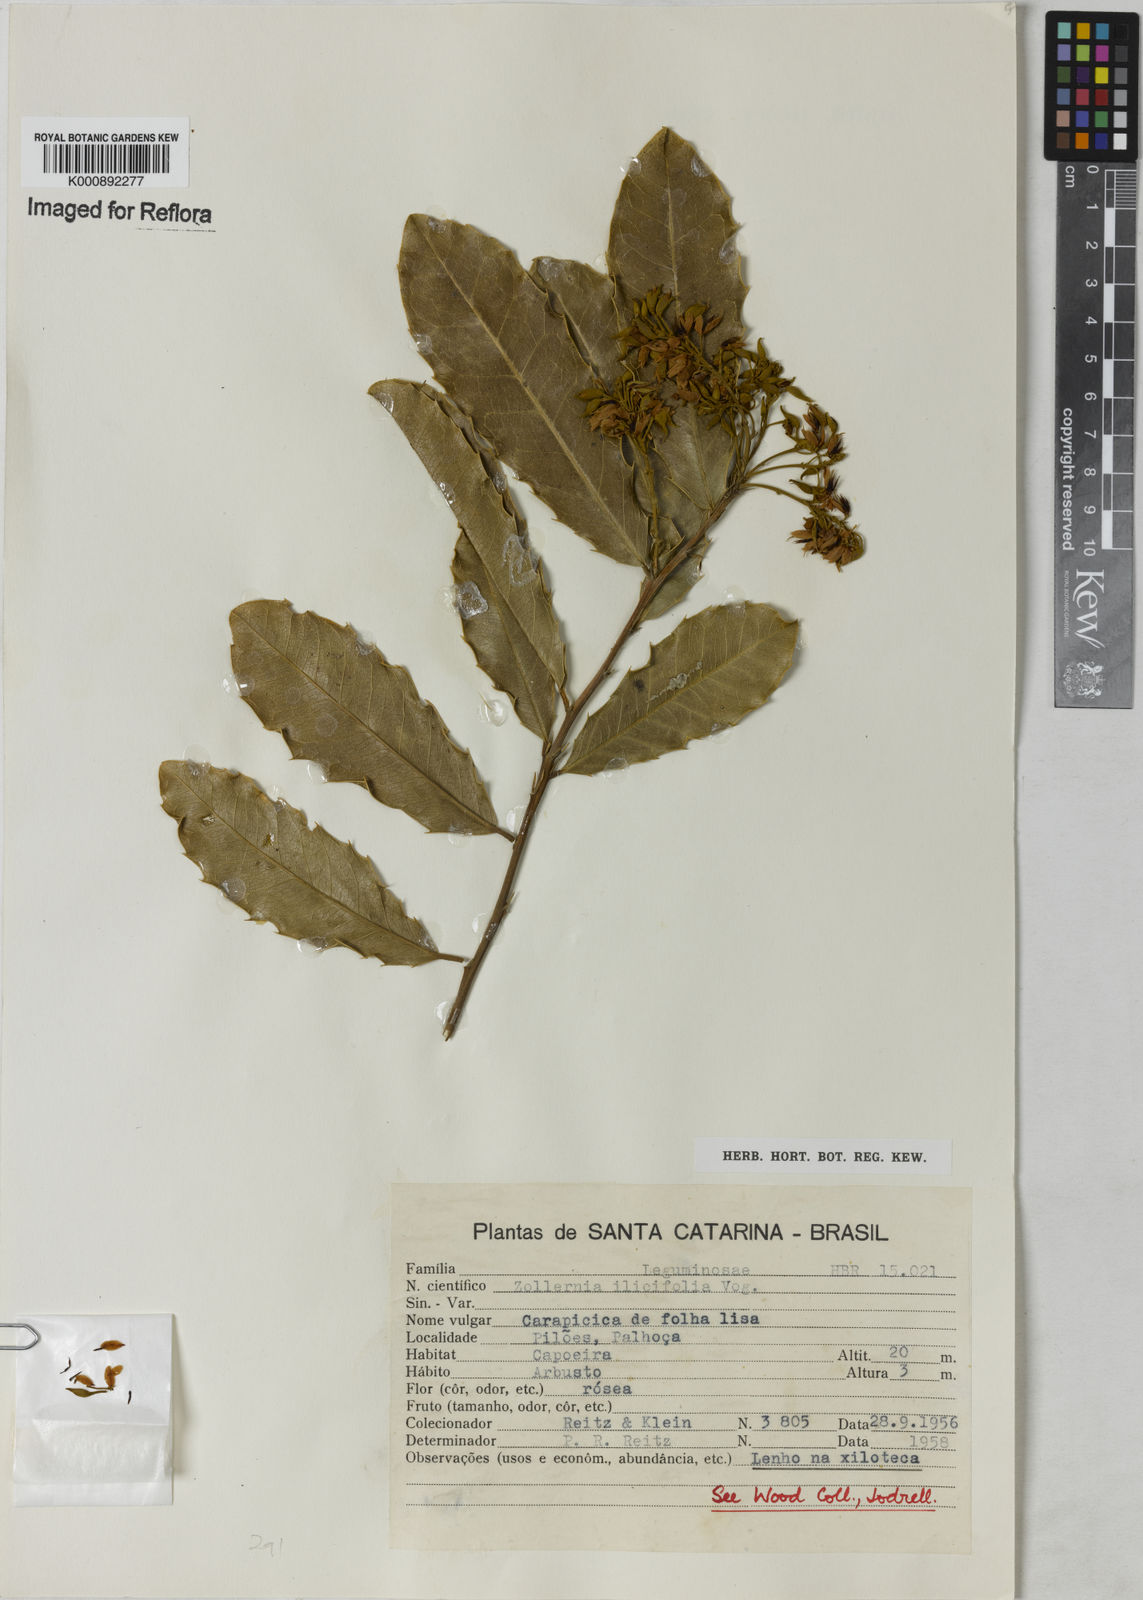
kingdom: Plantae
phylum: Tracheophyta
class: Magnoliopsida
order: Fabales
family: Fabaceae
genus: Zollernia
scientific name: Zollernia ilicifolia
